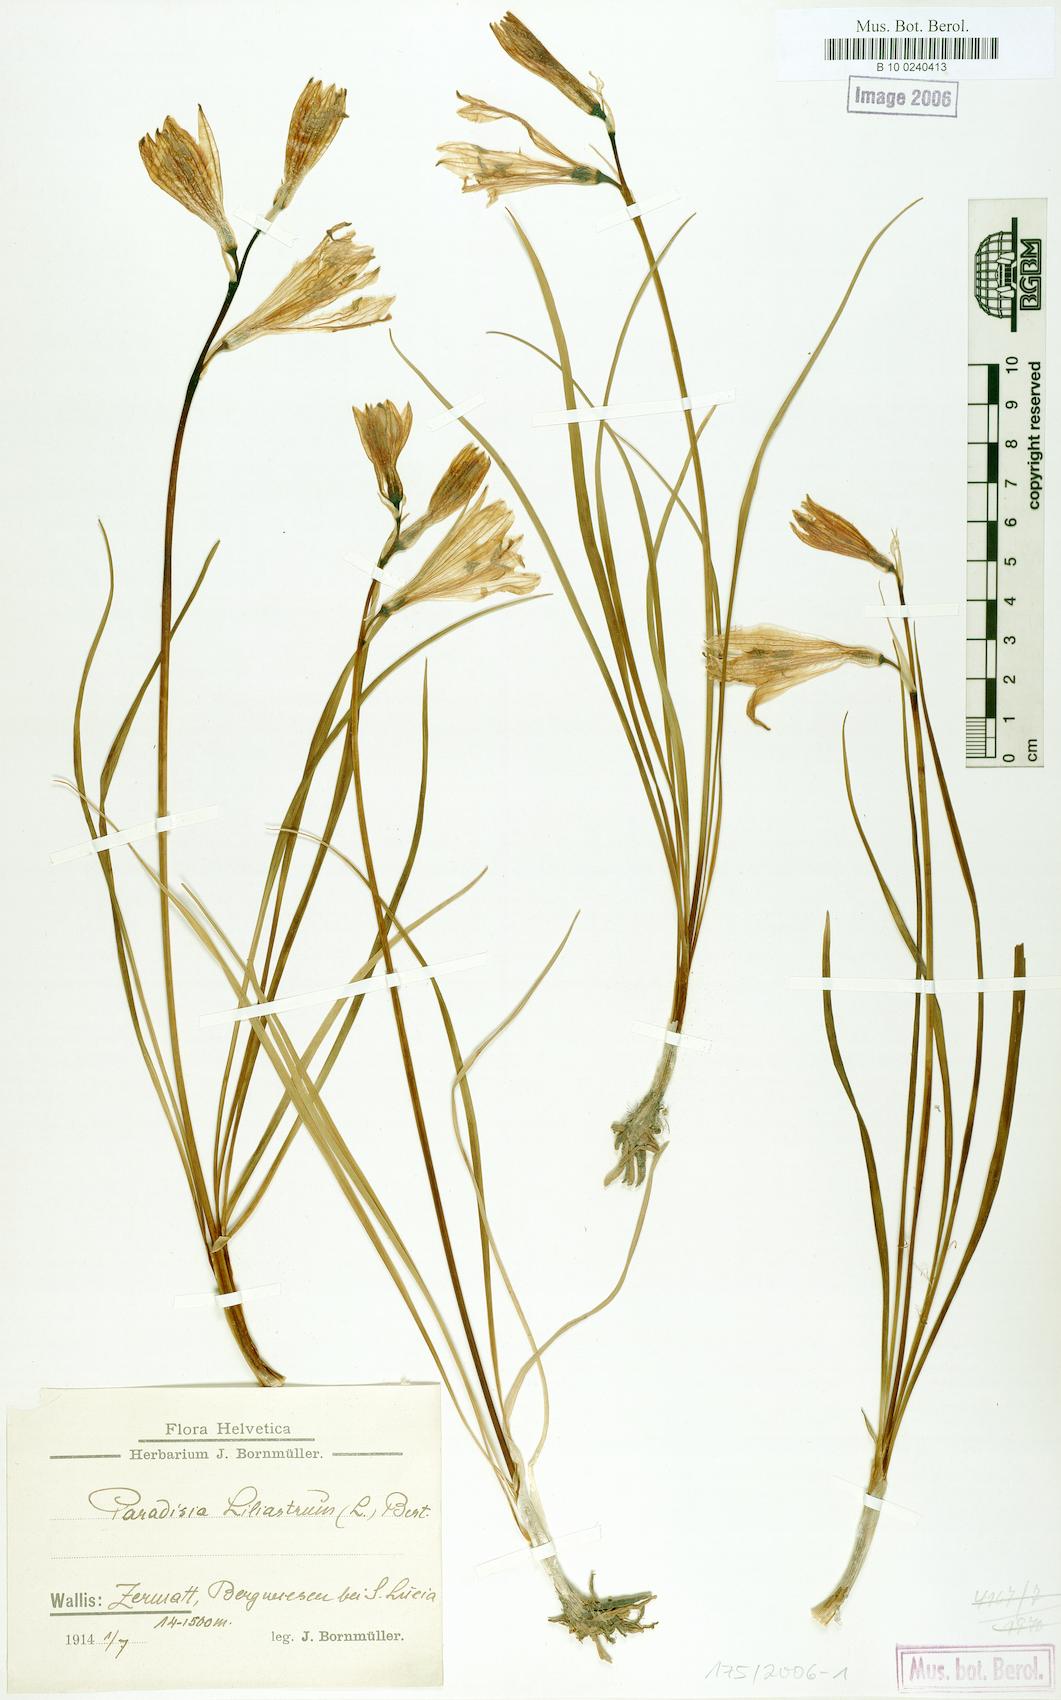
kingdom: Plantae
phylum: Tracheophyta
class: Liliopsida
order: Asparagales
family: Asparagaceae
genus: Paradisea
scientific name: Paradisea liliastrum
